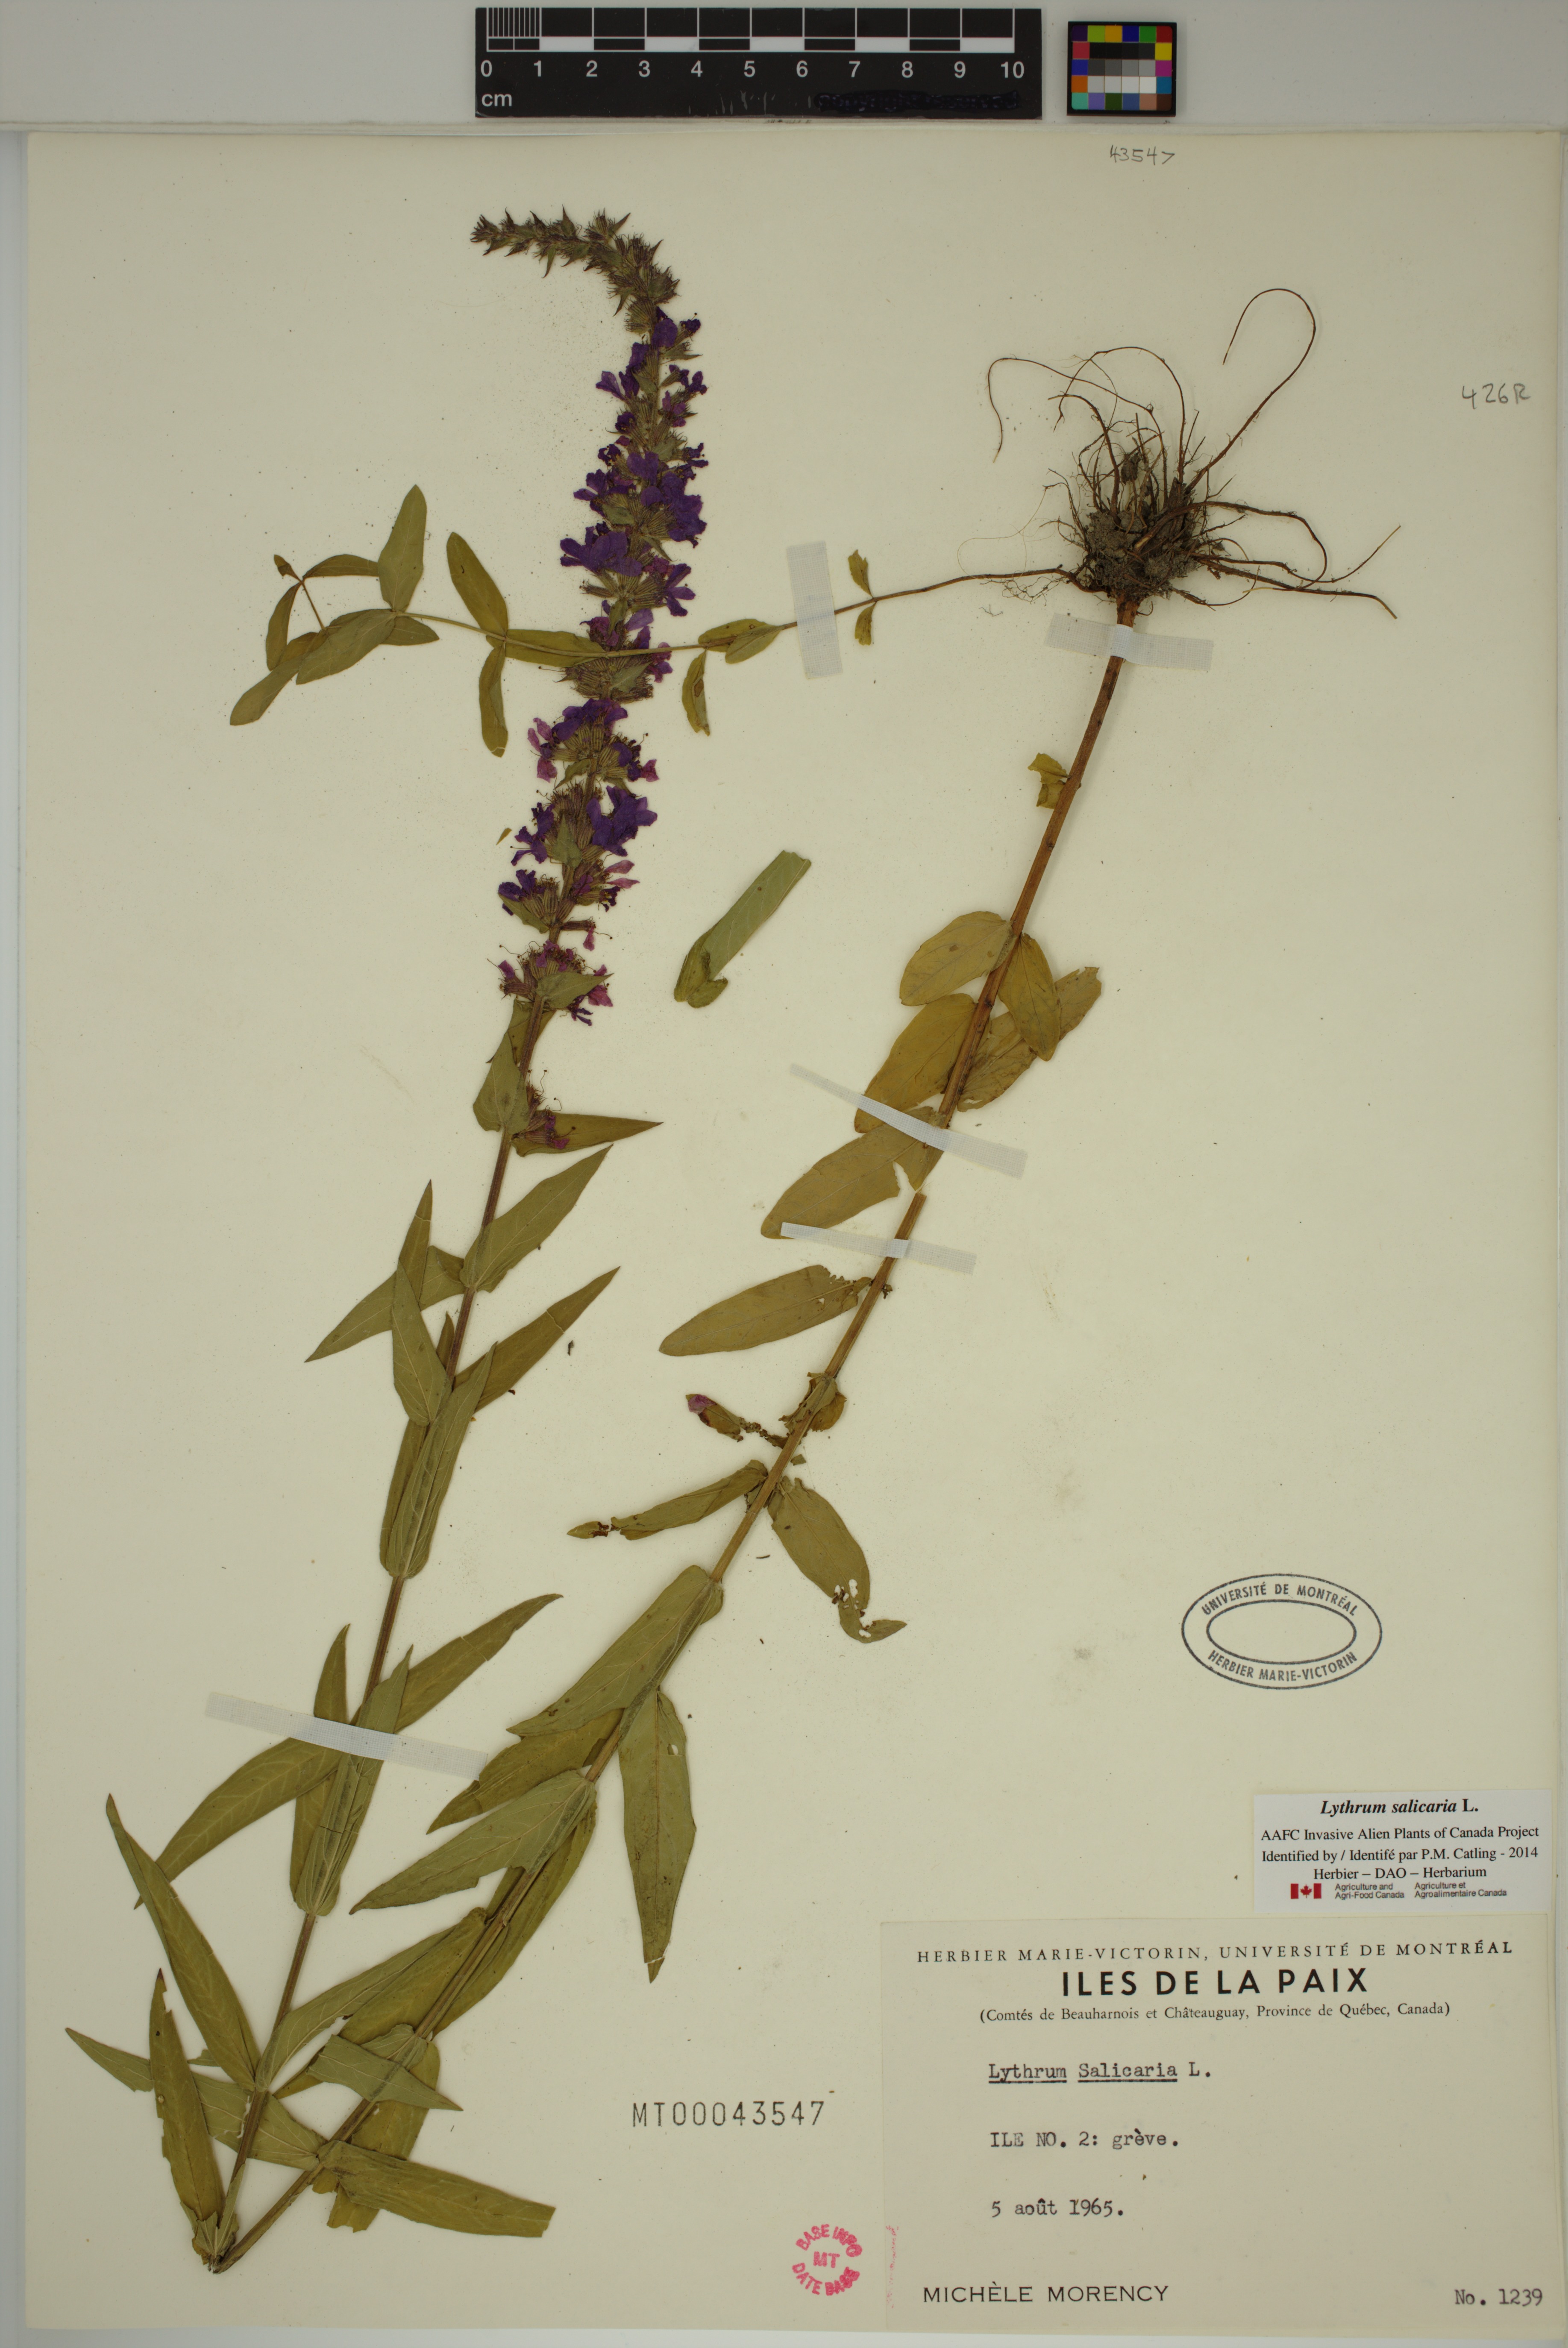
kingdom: Plantae
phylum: Tracheophyta
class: Magnoliopsida
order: Myrtales
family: Lythraceae
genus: Lythrum
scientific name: Lythrum salicaria
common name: Purple loosestrife
